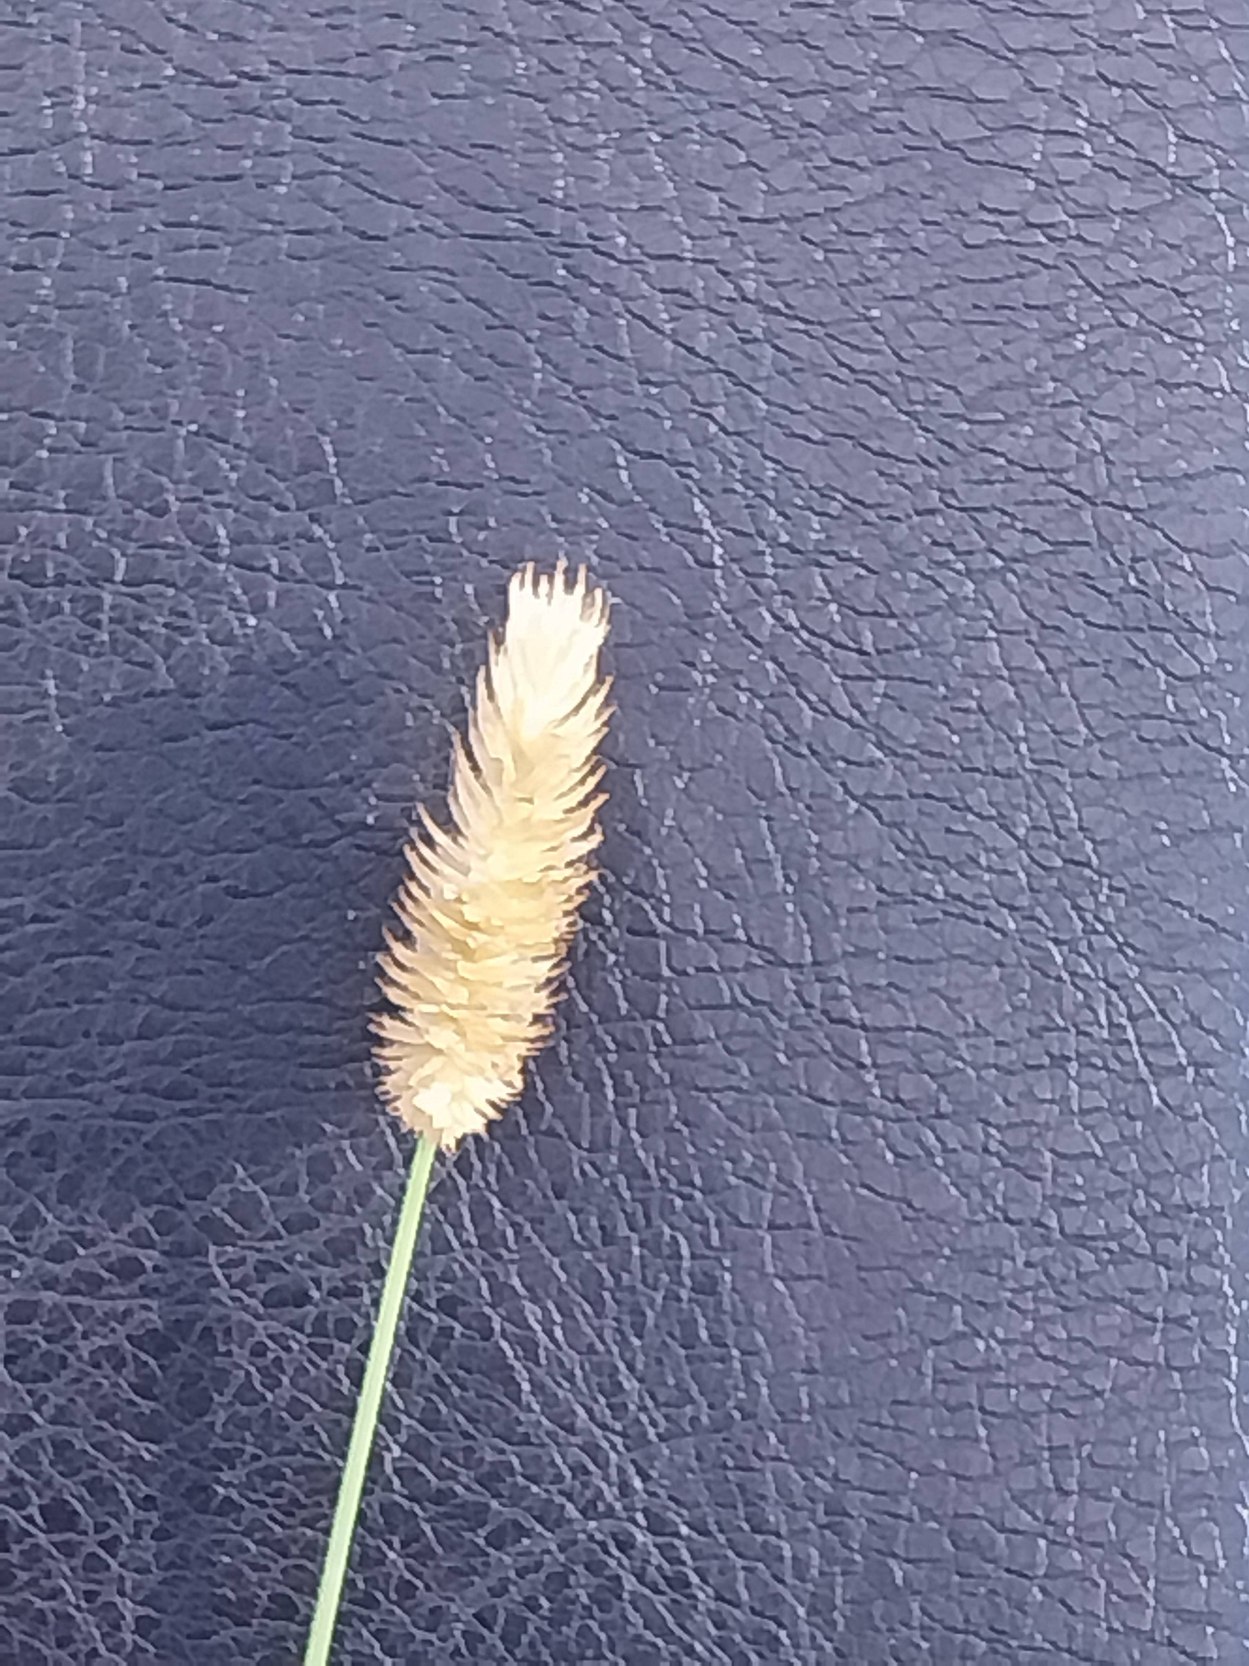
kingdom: Plantae
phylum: Tracheophyta
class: Liliopsida
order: Poales
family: Poaceae
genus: Phleum
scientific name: Phleum pratense
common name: Eng-rottehale
